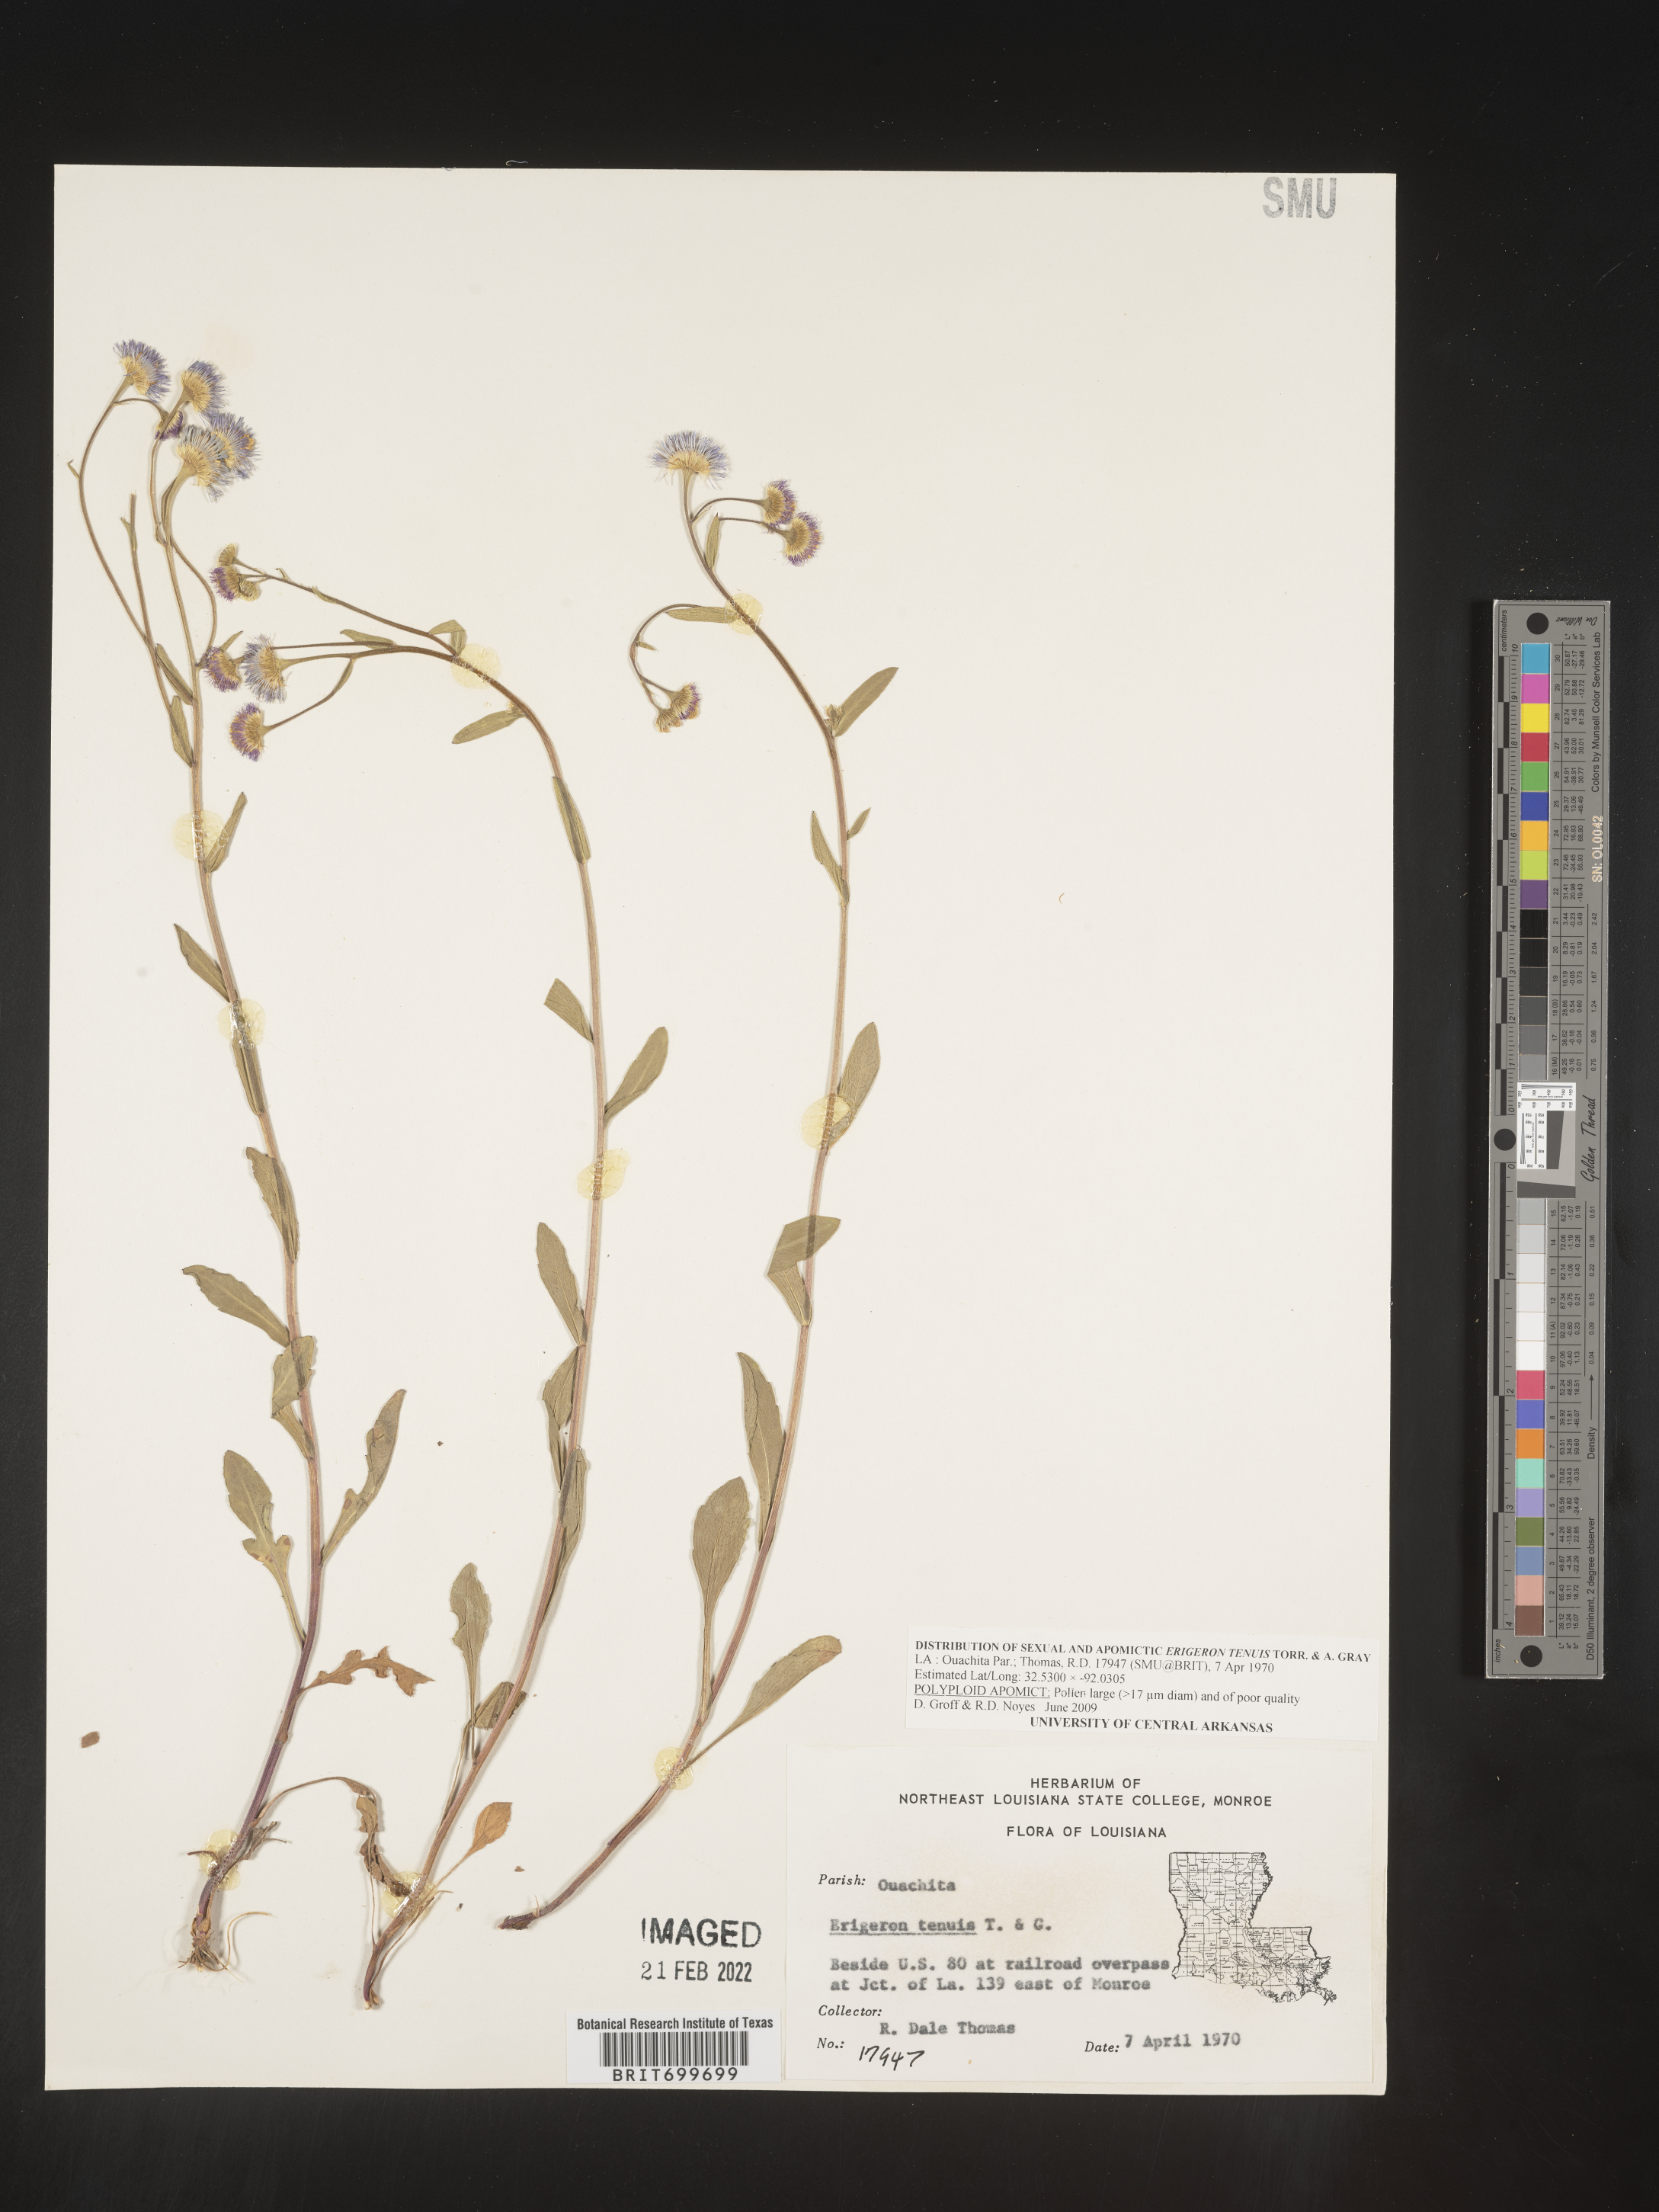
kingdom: Plantae
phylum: Tracheophyta
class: Magnoliopsida
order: Asterales
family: Asteraceae
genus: Erigeron
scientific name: Erigeron tenuis
